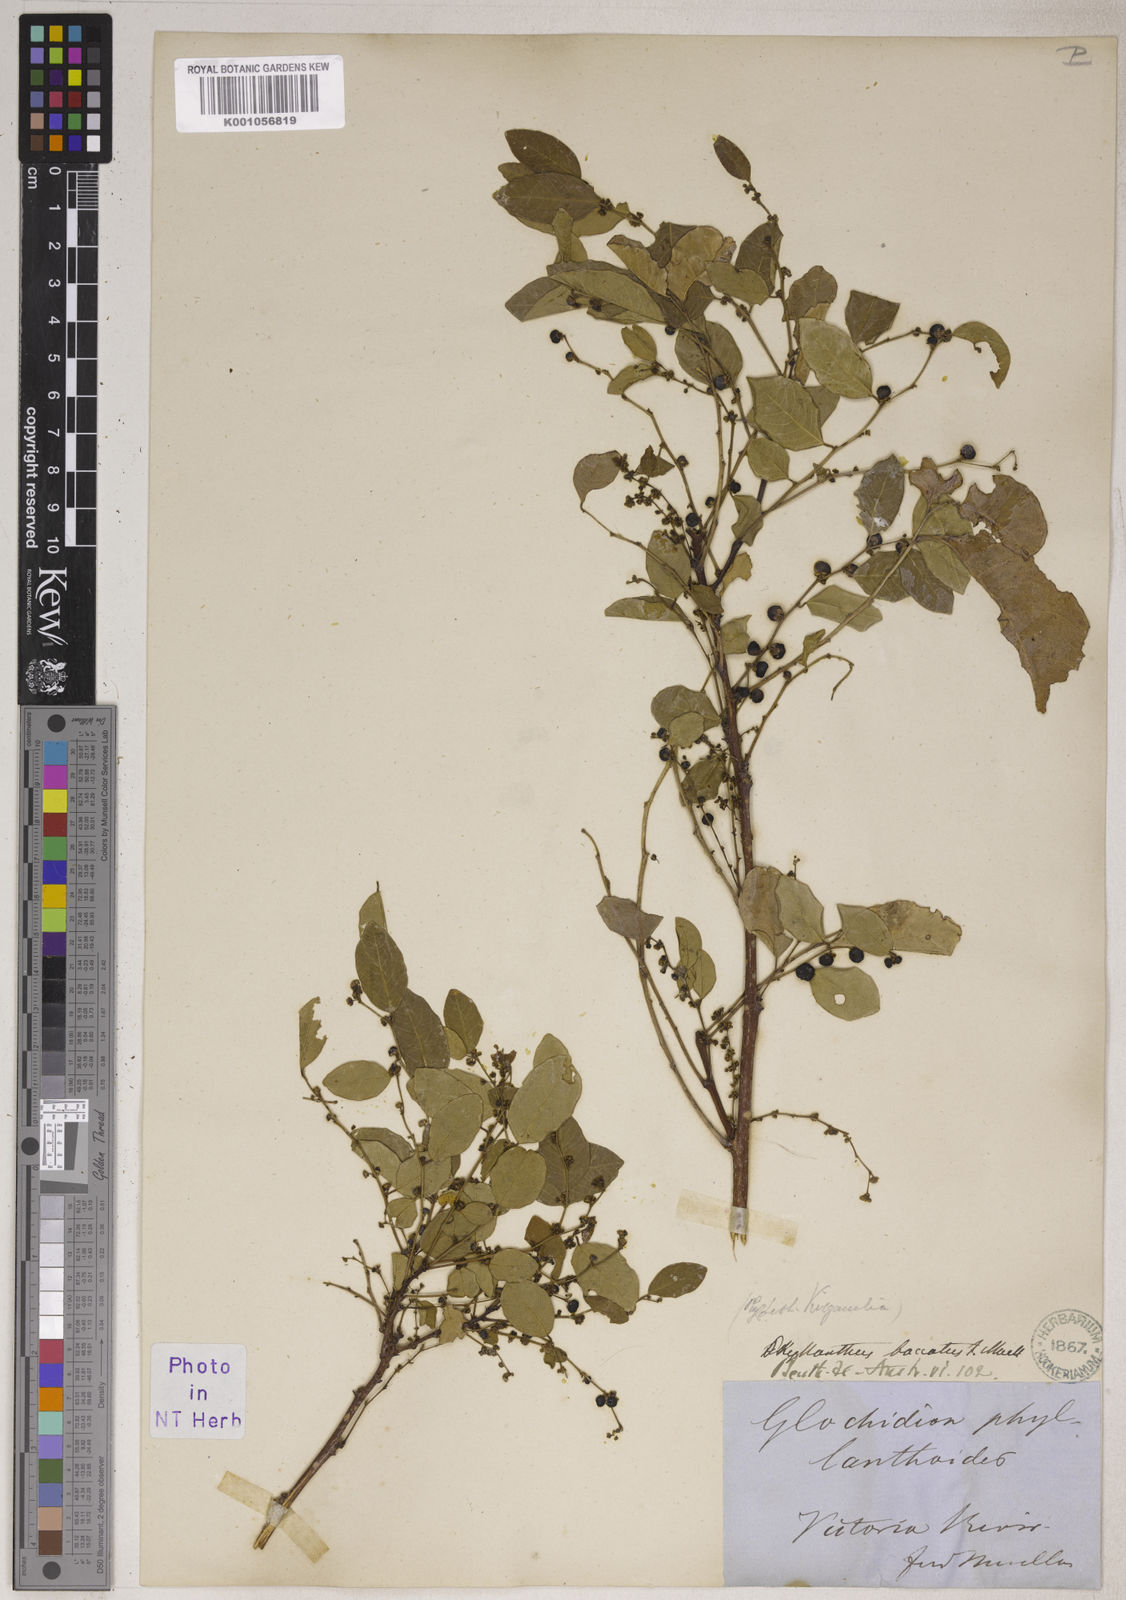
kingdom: Plantae
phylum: Tracheophyta
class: Magnoliopsida
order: Malpighiales
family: Phyllanthaceae
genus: Phyllanthus
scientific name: Phyllanthus
